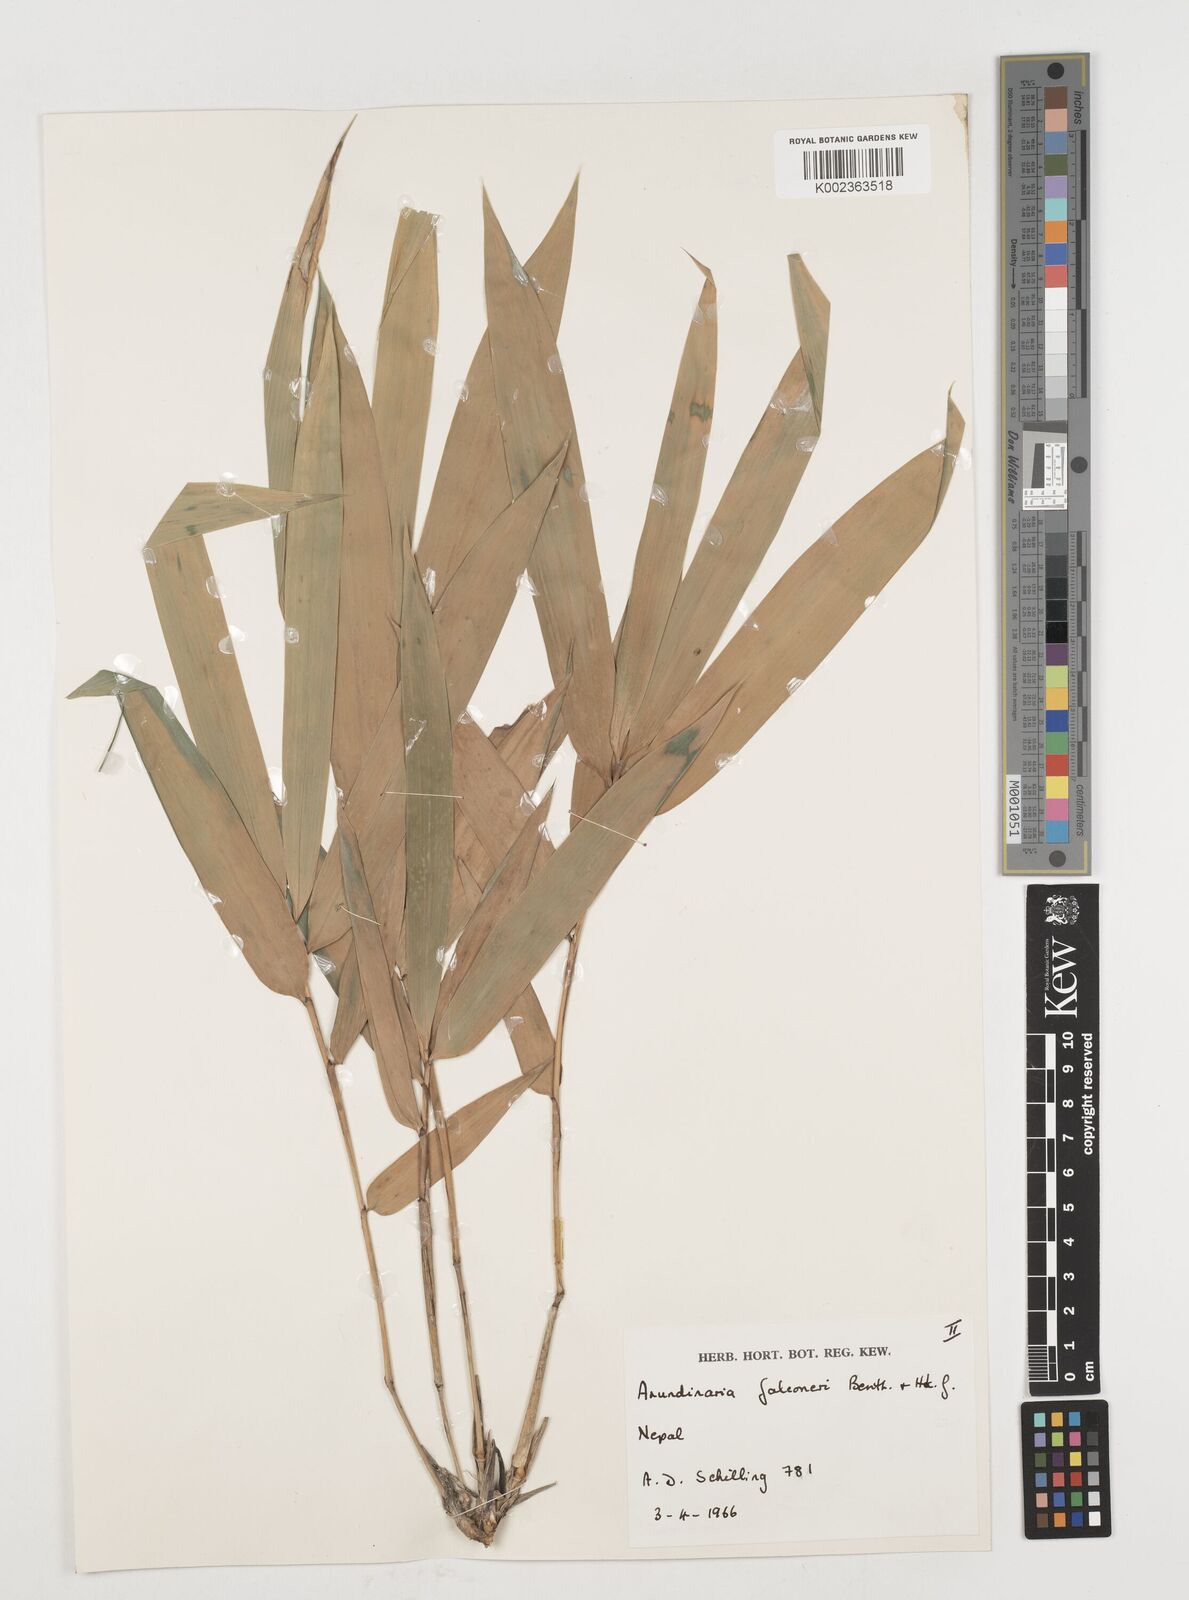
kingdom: Plantae
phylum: Tracheophyta
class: Liliopsida
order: Poales
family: Poaceae
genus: Himalayacalamus
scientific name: Himalayacalamus falconeri
